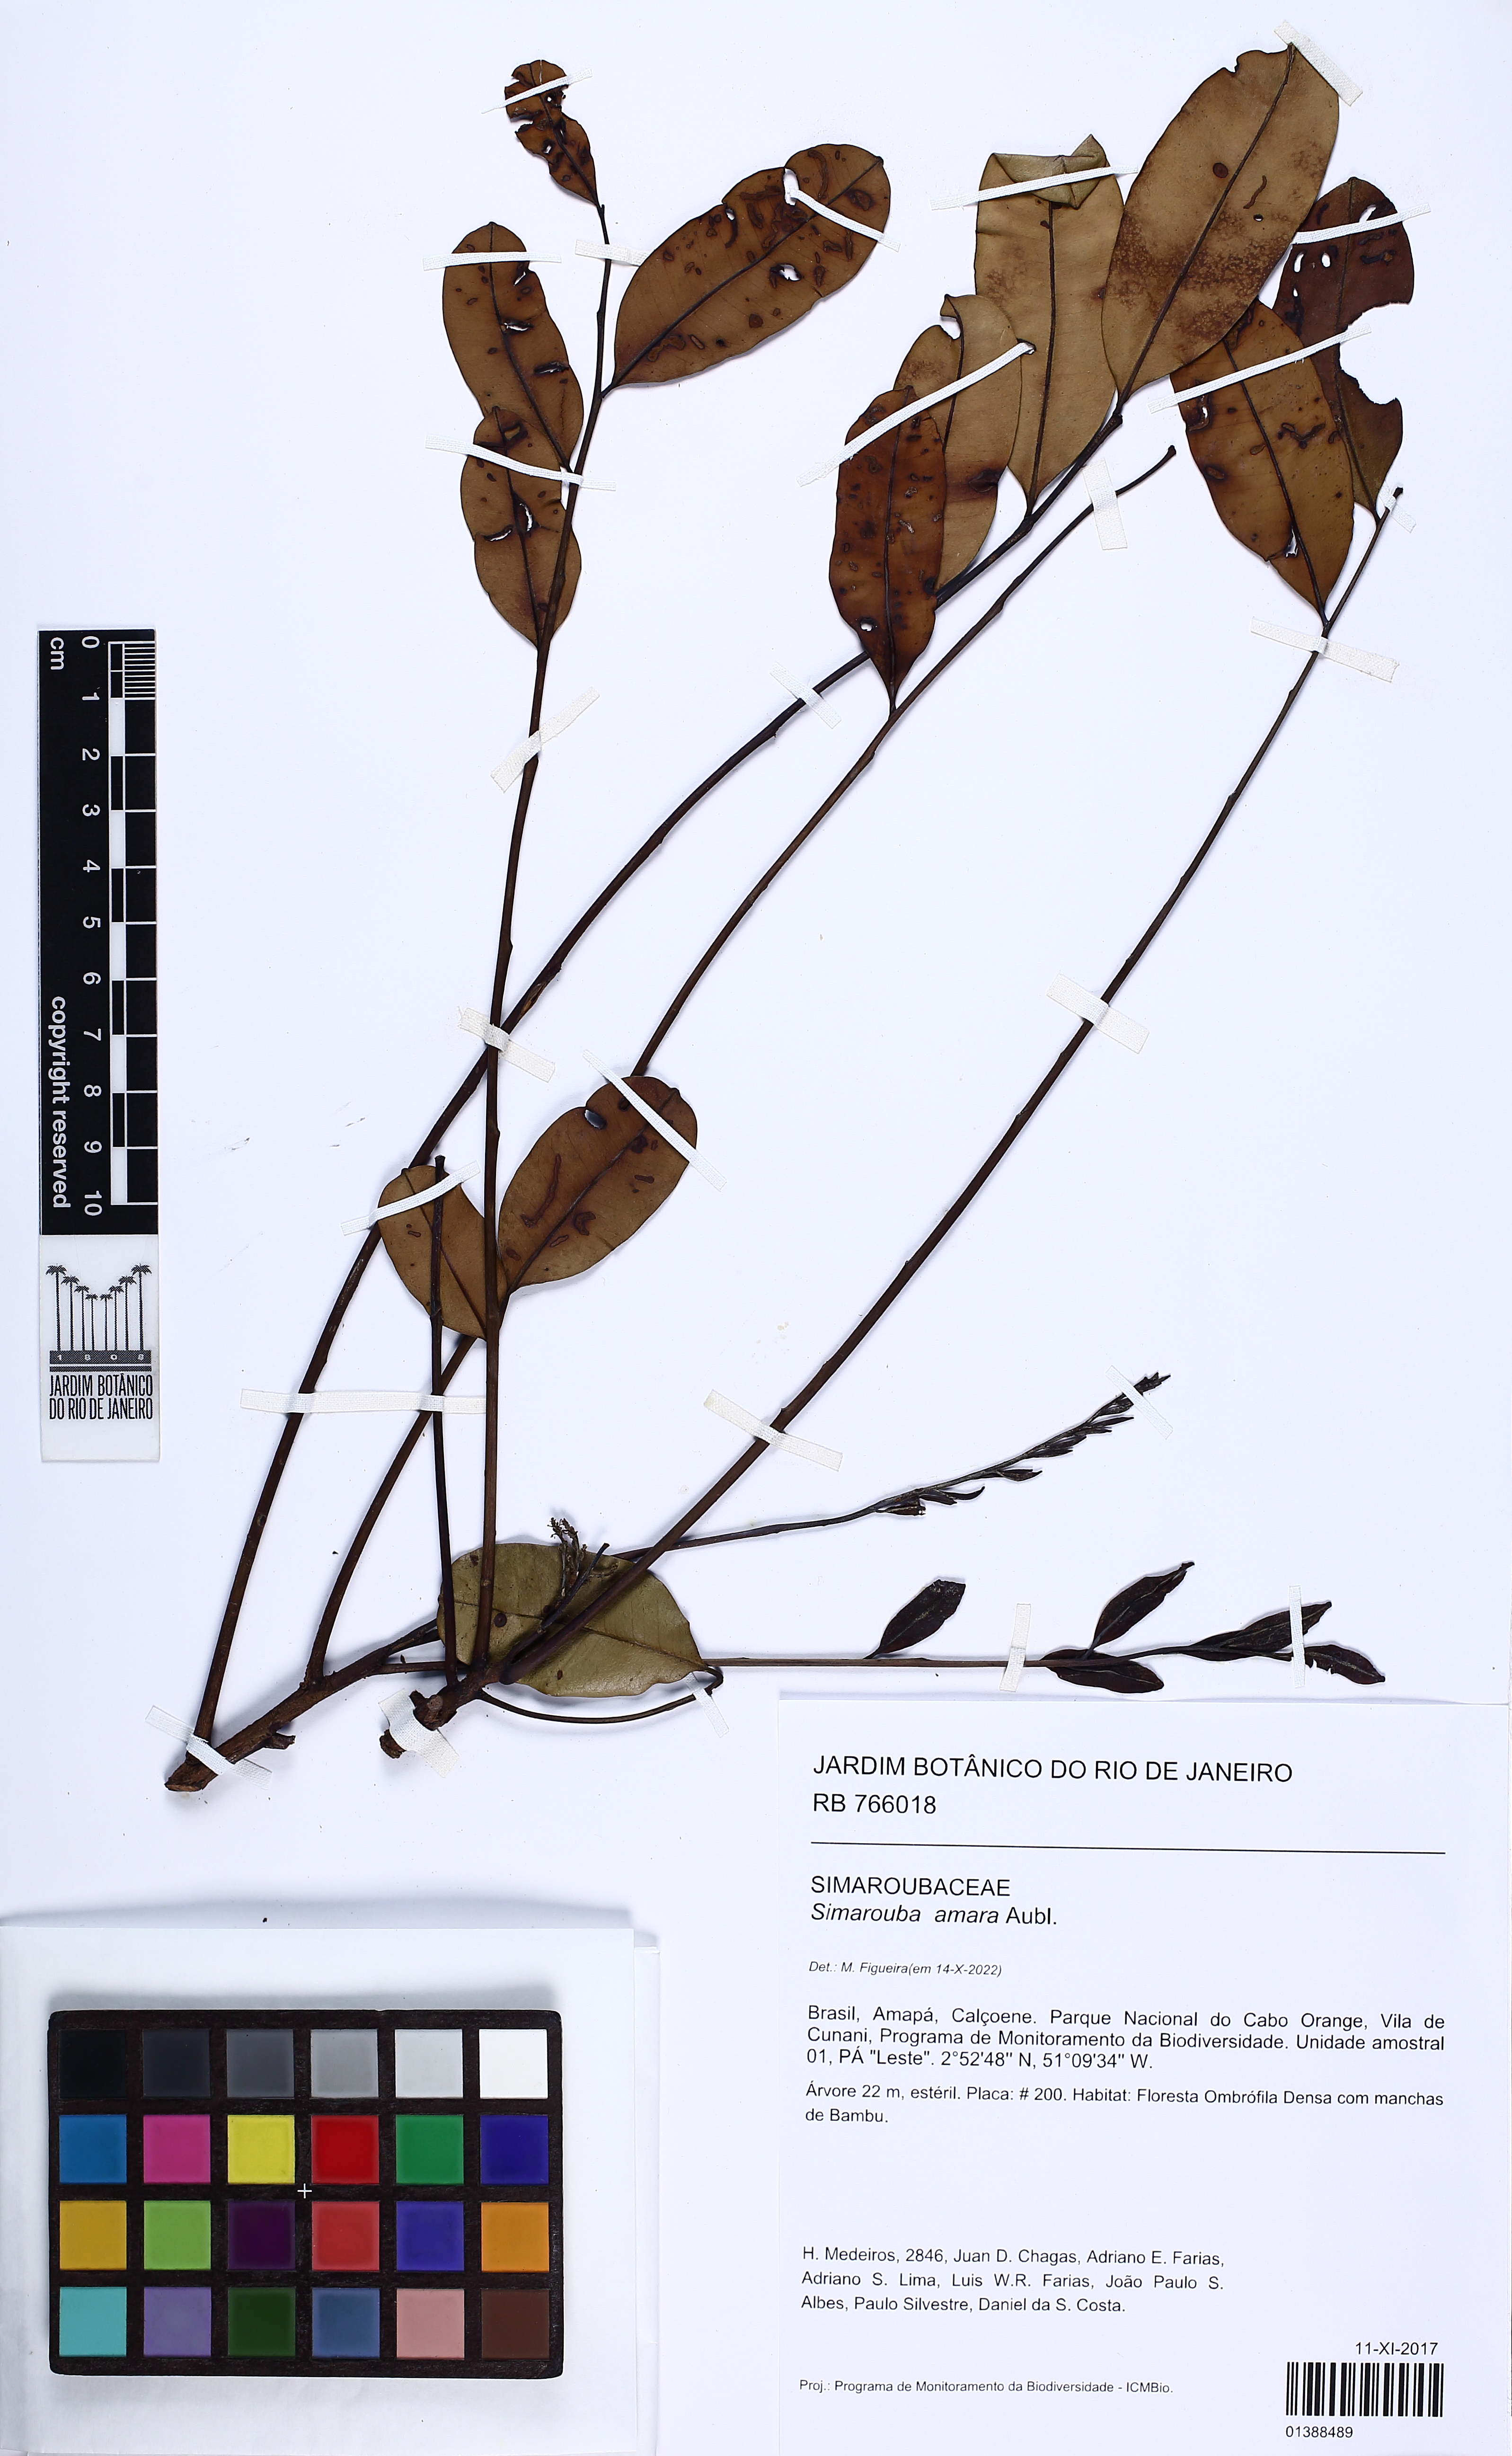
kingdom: Plantae
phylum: Tracheophyta
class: Magnoliopsida
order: Sapindales
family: Simaroubaceae
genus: Simarouba
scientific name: Simarouba amara
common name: Bitterwood
